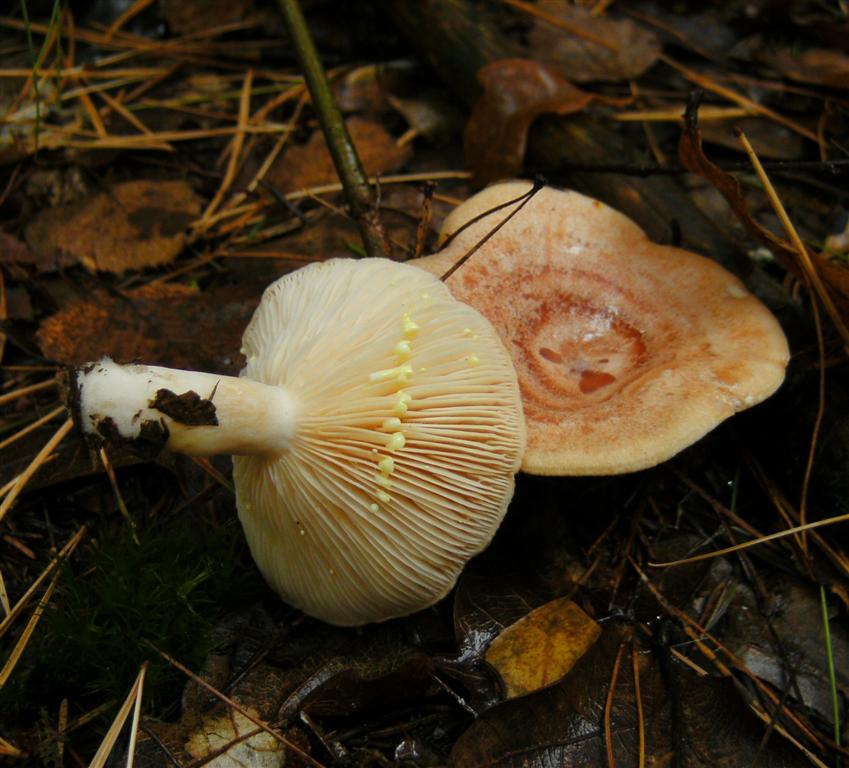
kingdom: Fungi
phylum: Basidiomycota
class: Agaricomycetes
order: Russulales
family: Russulaceae
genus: Lactarius
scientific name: Lactarius chrysorrheus
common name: svovlmælket mælkehat
